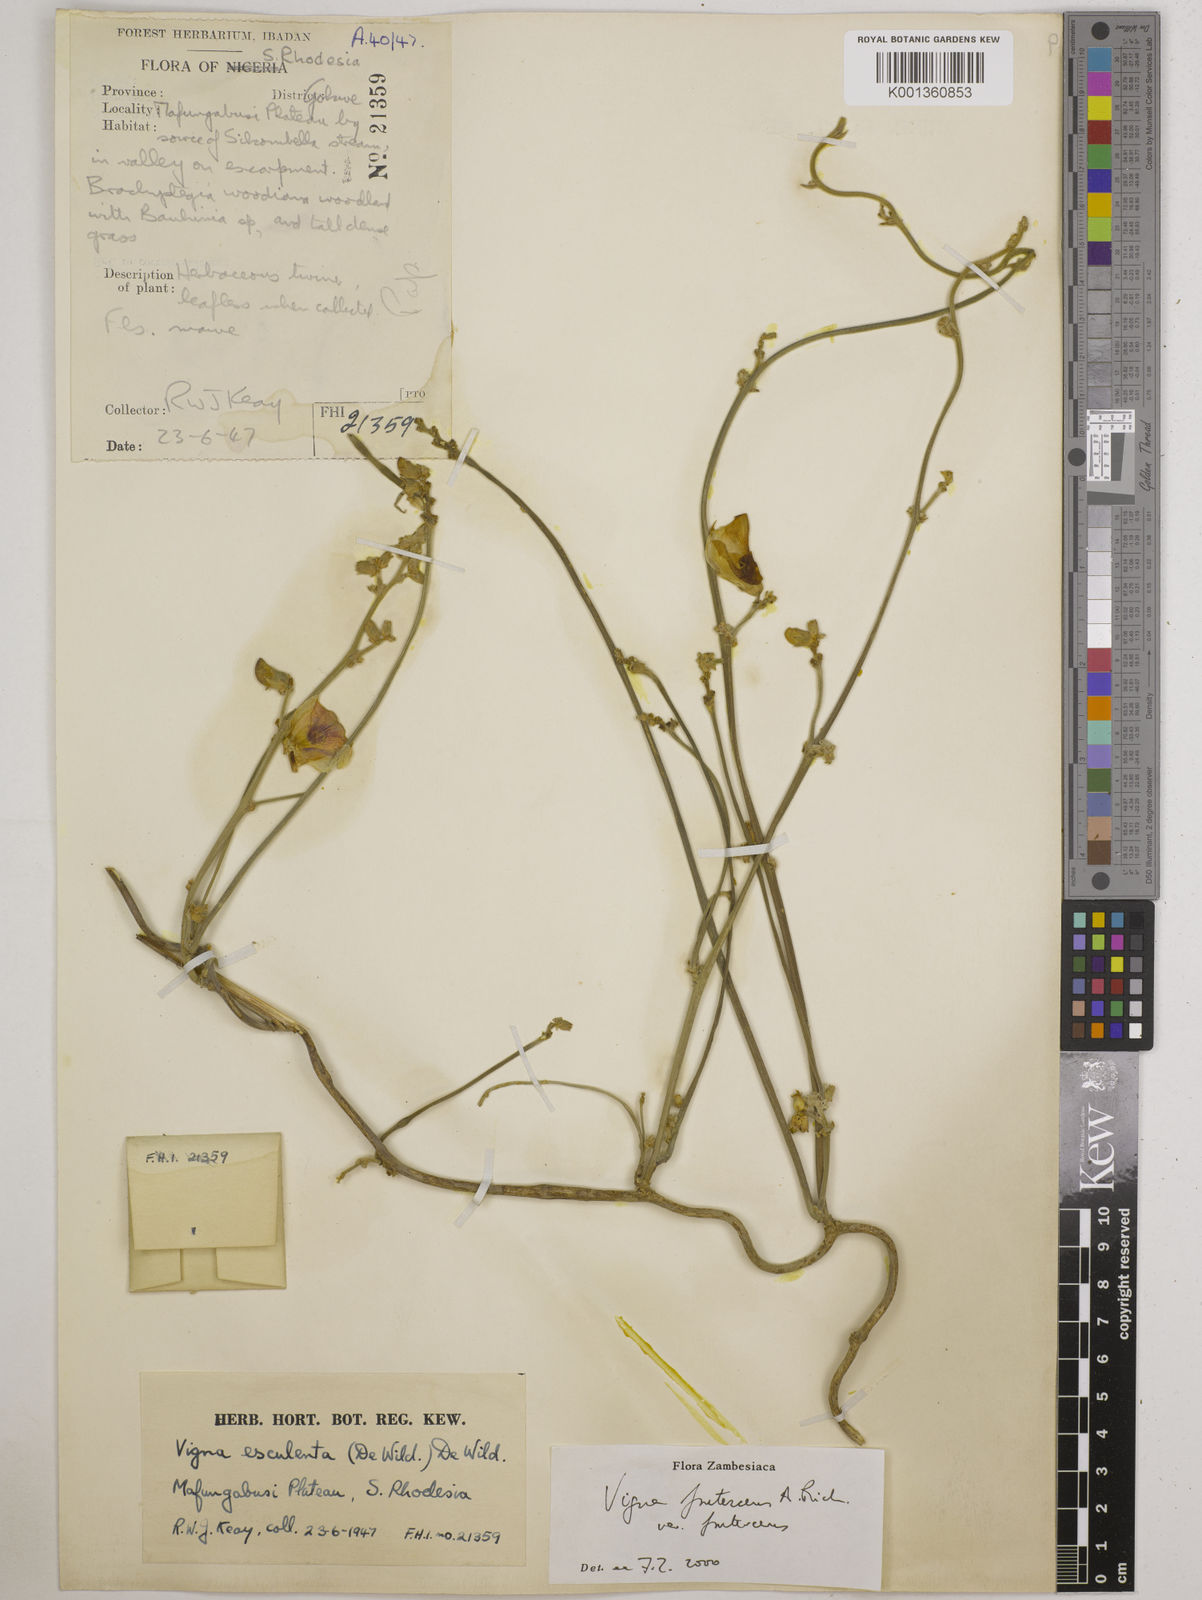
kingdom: Plantae
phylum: Tracheophyta
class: Magnoliopsida
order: Fabales
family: Fabaceae
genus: Vigna
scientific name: Vigna
